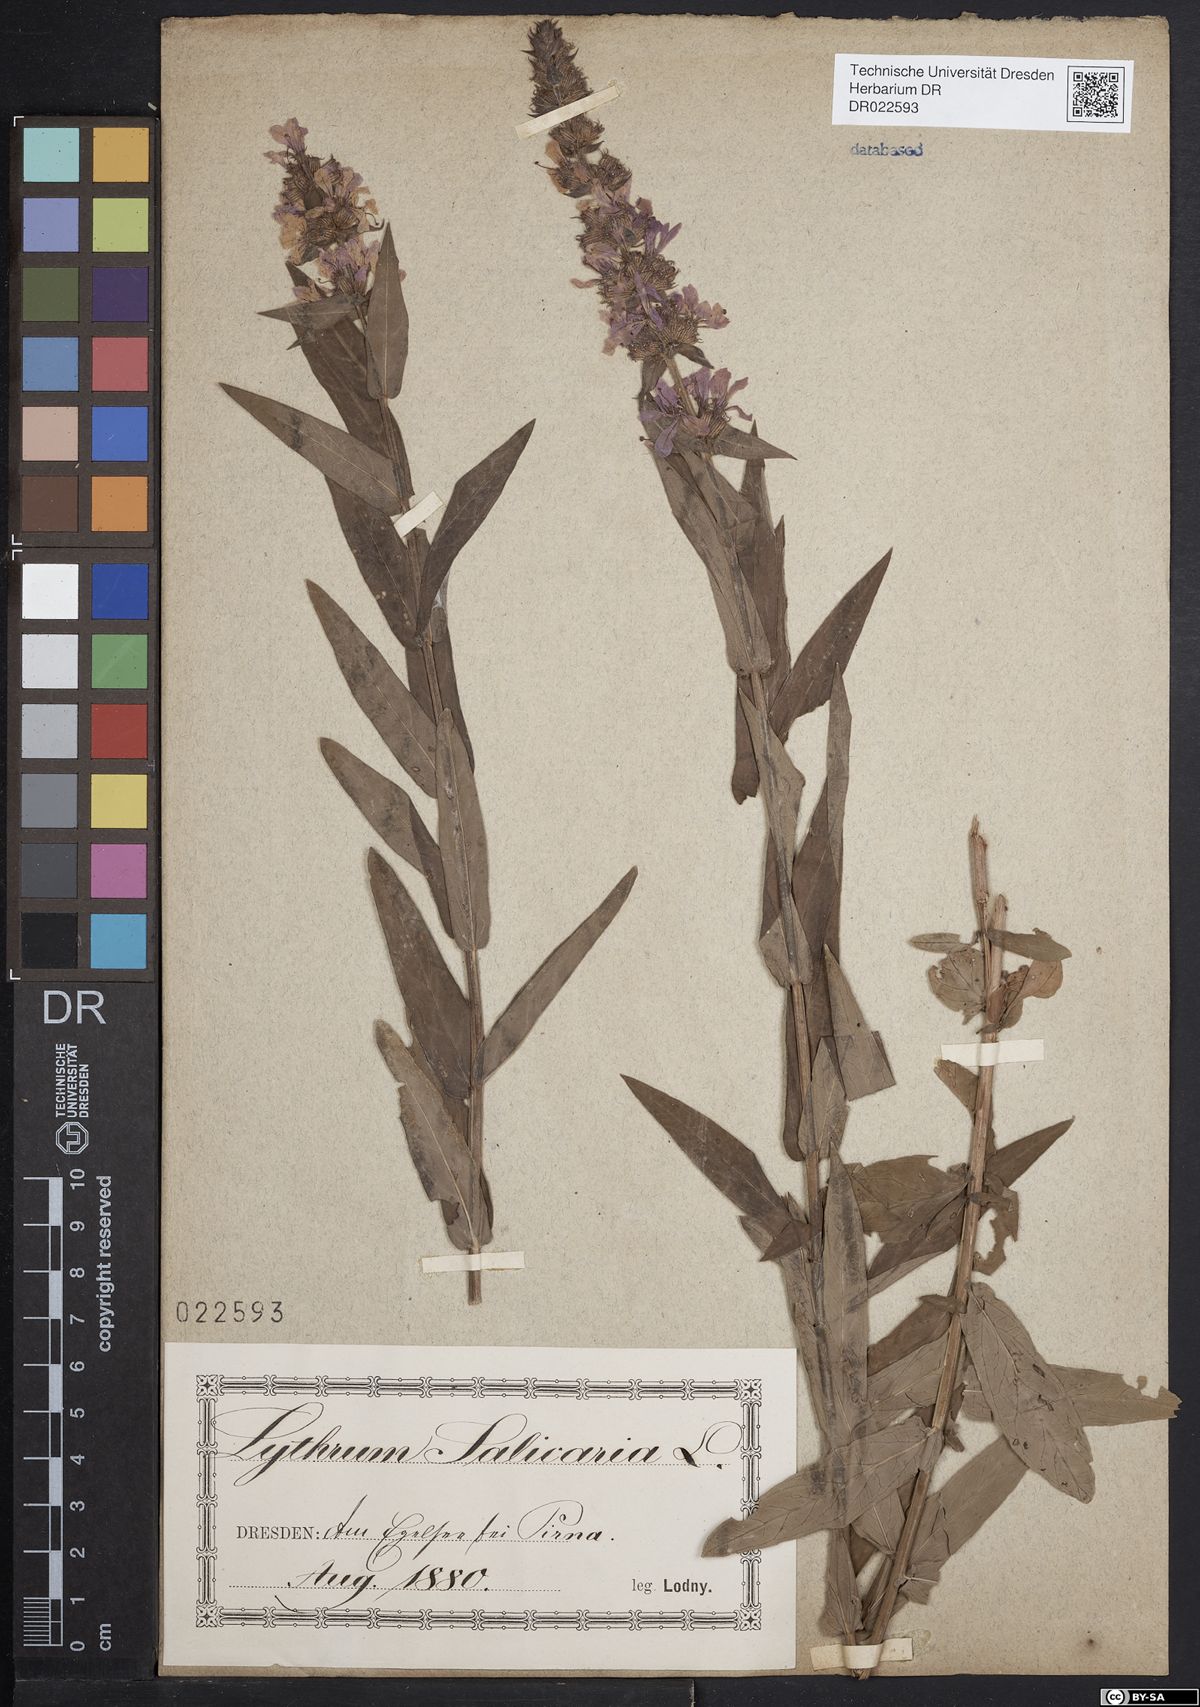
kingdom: Plantae
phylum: Tracheophyta
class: Magnoliopsida
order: Myrtales
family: Lythraceae
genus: Lythrum
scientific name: Lythrum salicaria
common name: Purple loosestrife
